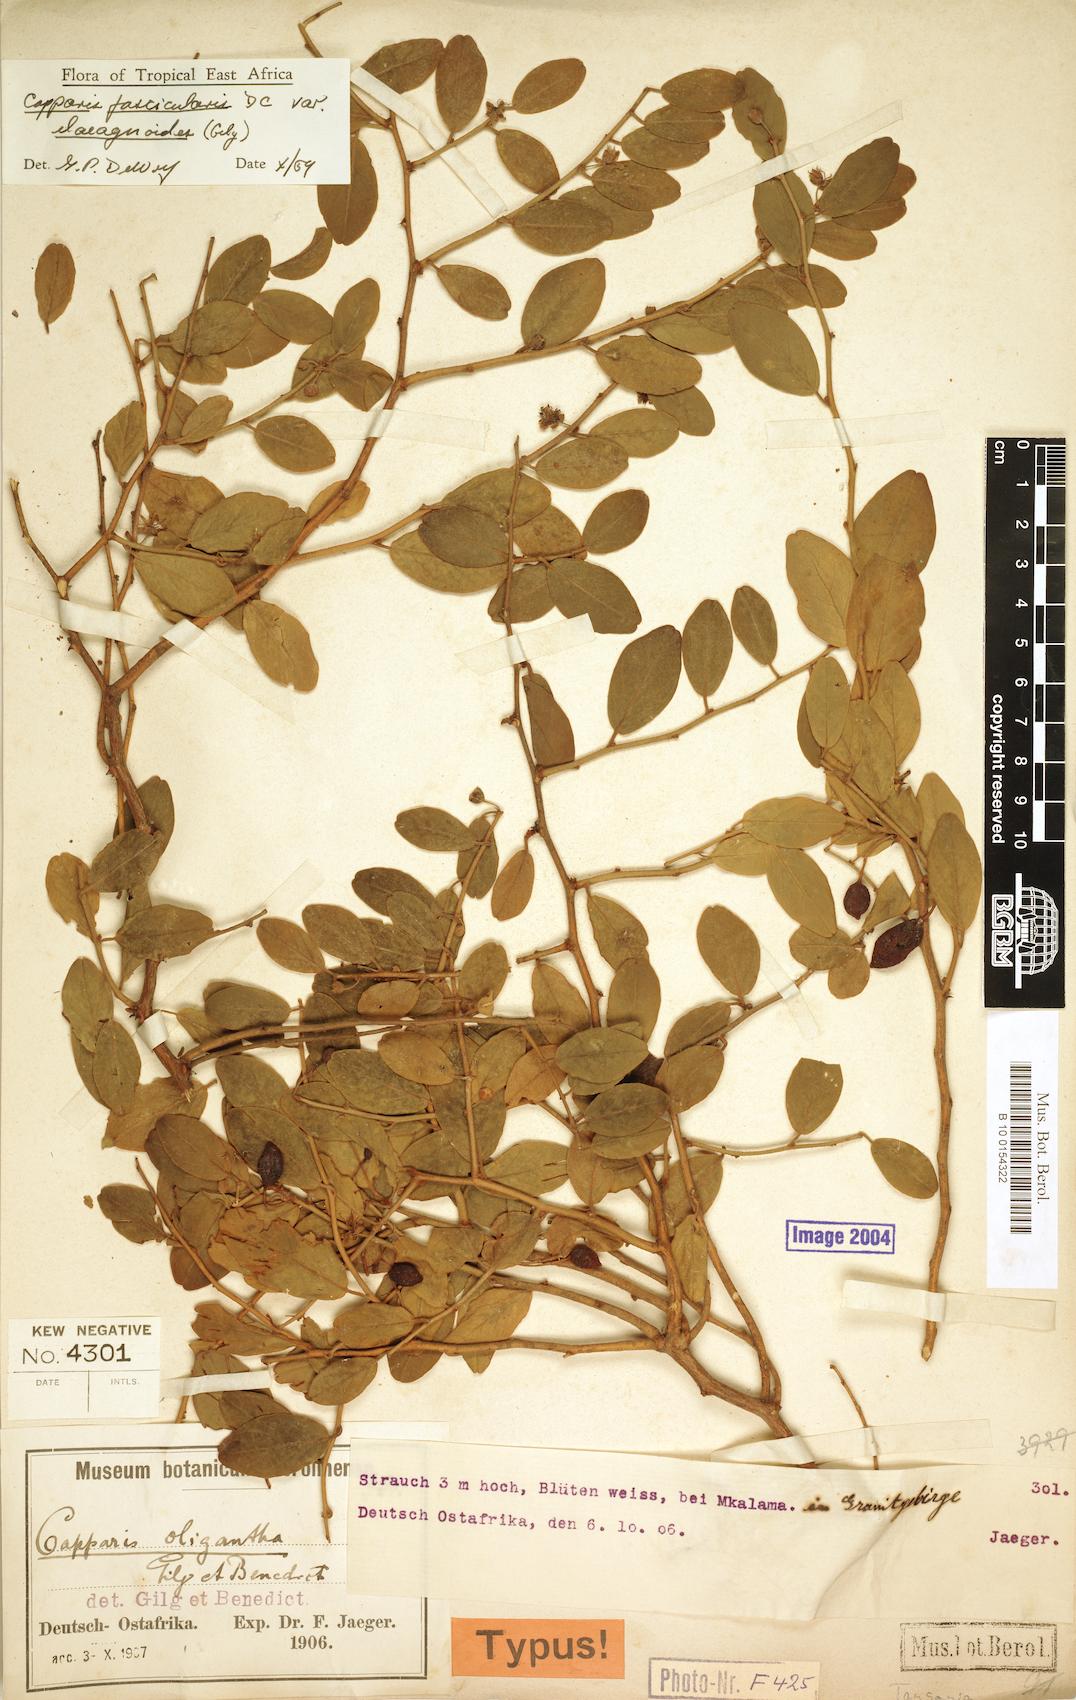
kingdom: Plantae
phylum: Tracheophyta
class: Magnoliopsida
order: Brassicales
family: Capparaceae
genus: Capparis
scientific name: Capparis fascicularis
